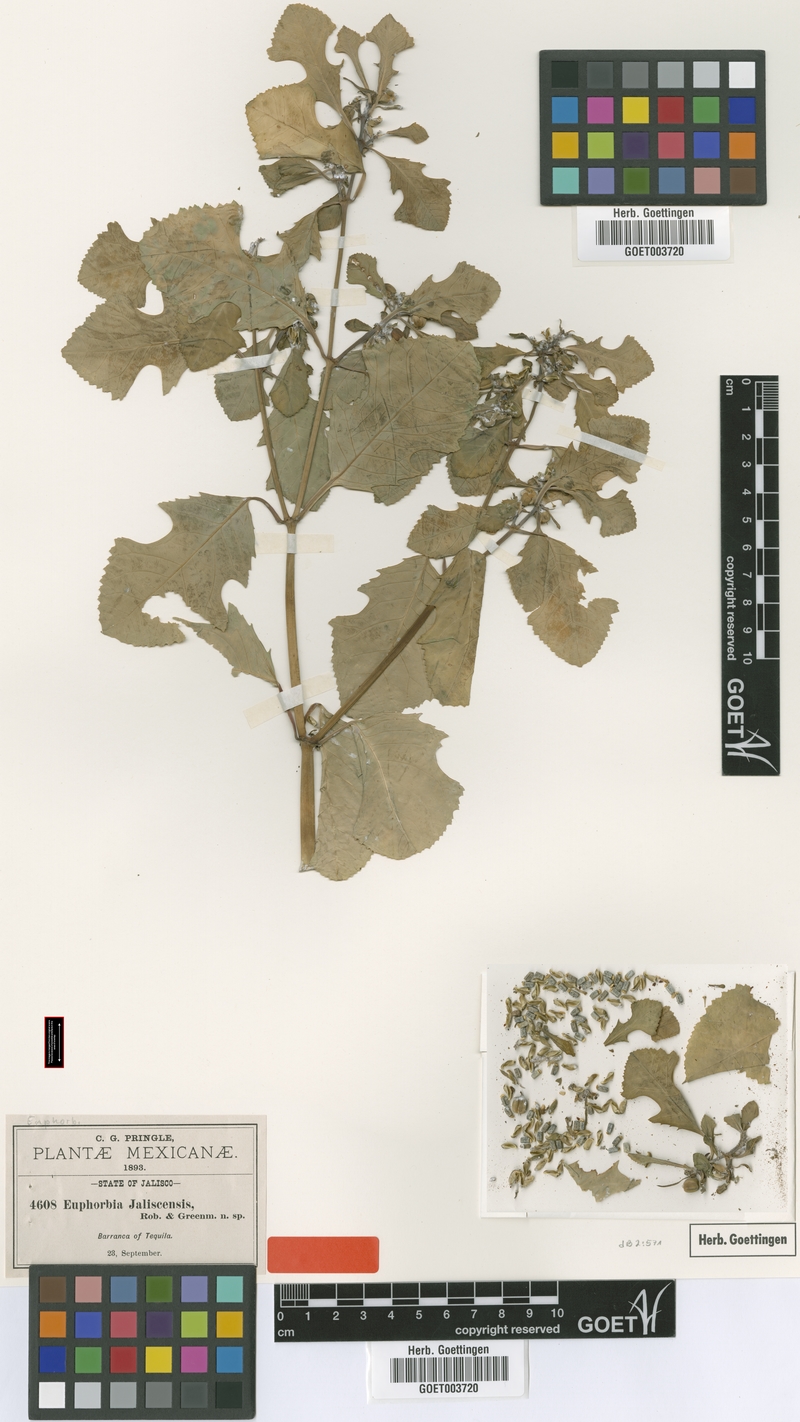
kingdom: Plantae
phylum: Tracheophyta
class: Magnoliopsida
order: Malpighiales
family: Euphorbiaceae
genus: Euphorbia
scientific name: Euphorbia jaliscensis
